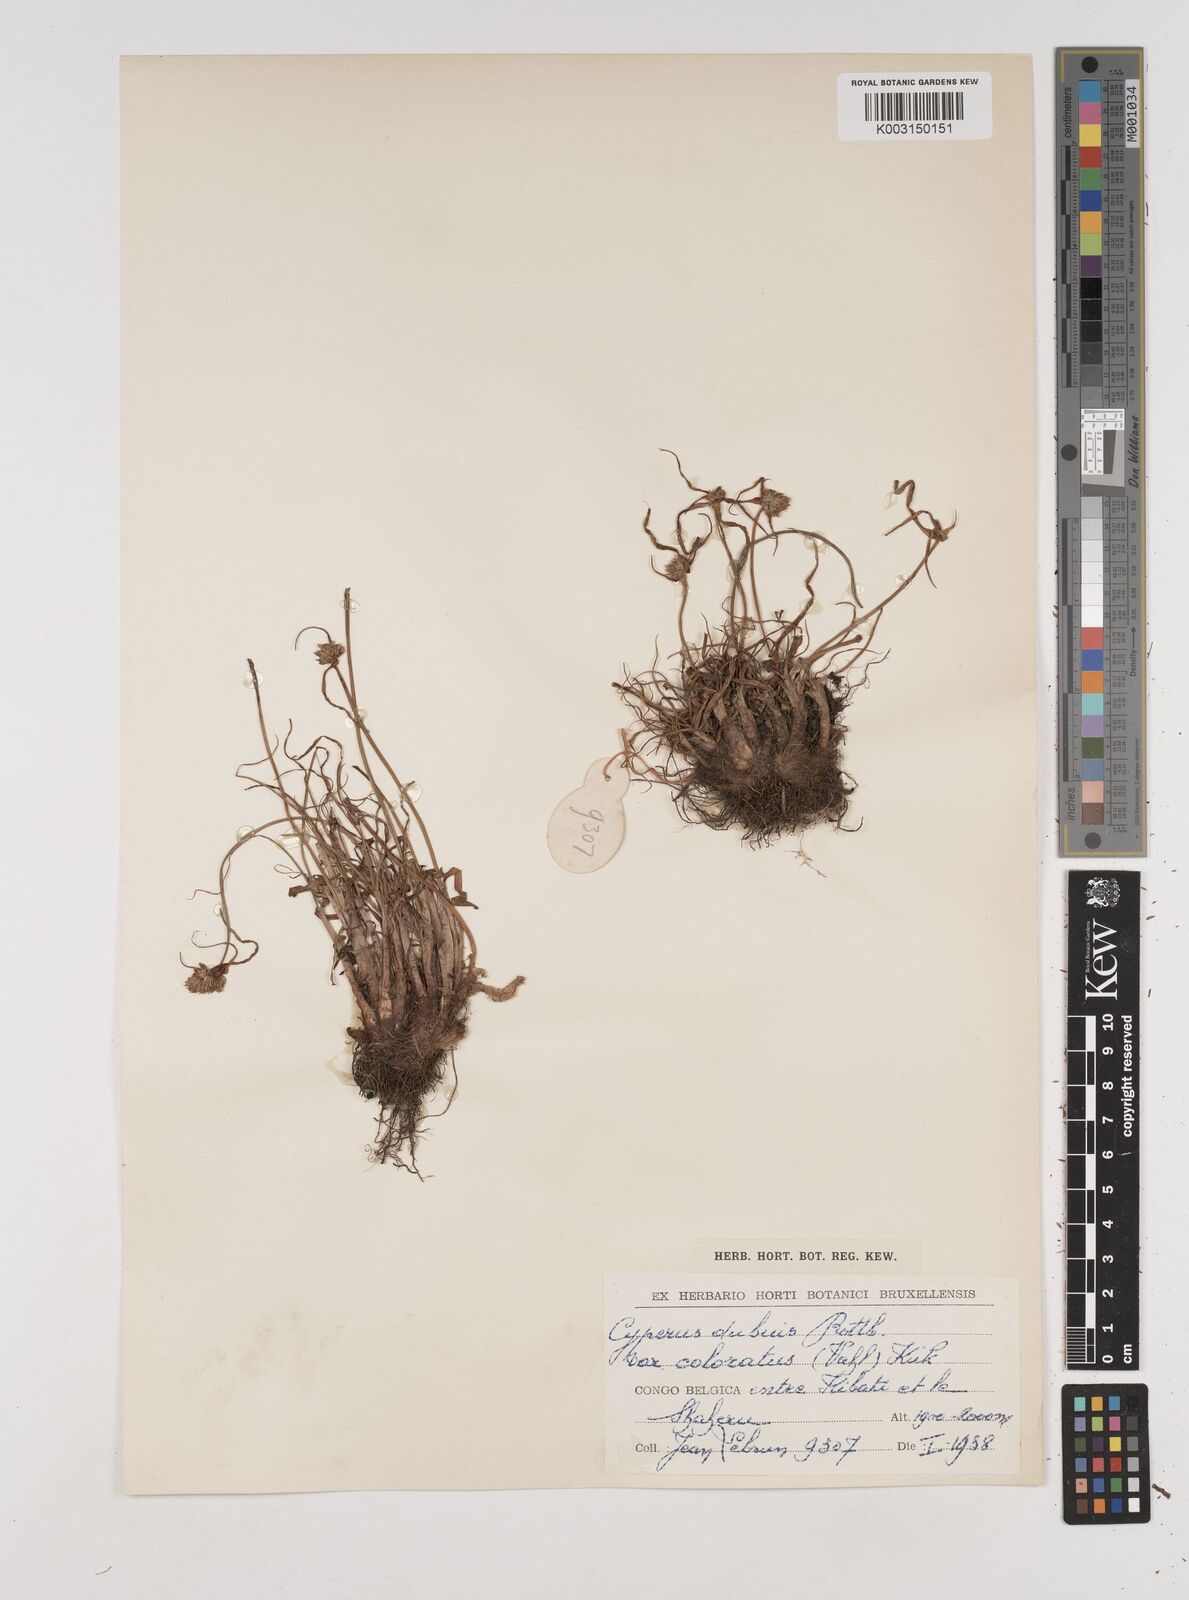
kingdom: Plantae
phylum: Tracheophyta
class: Liliopsida
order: Poales
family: Cyperaceae
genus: Cyperus
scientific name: Cyperus dubius
